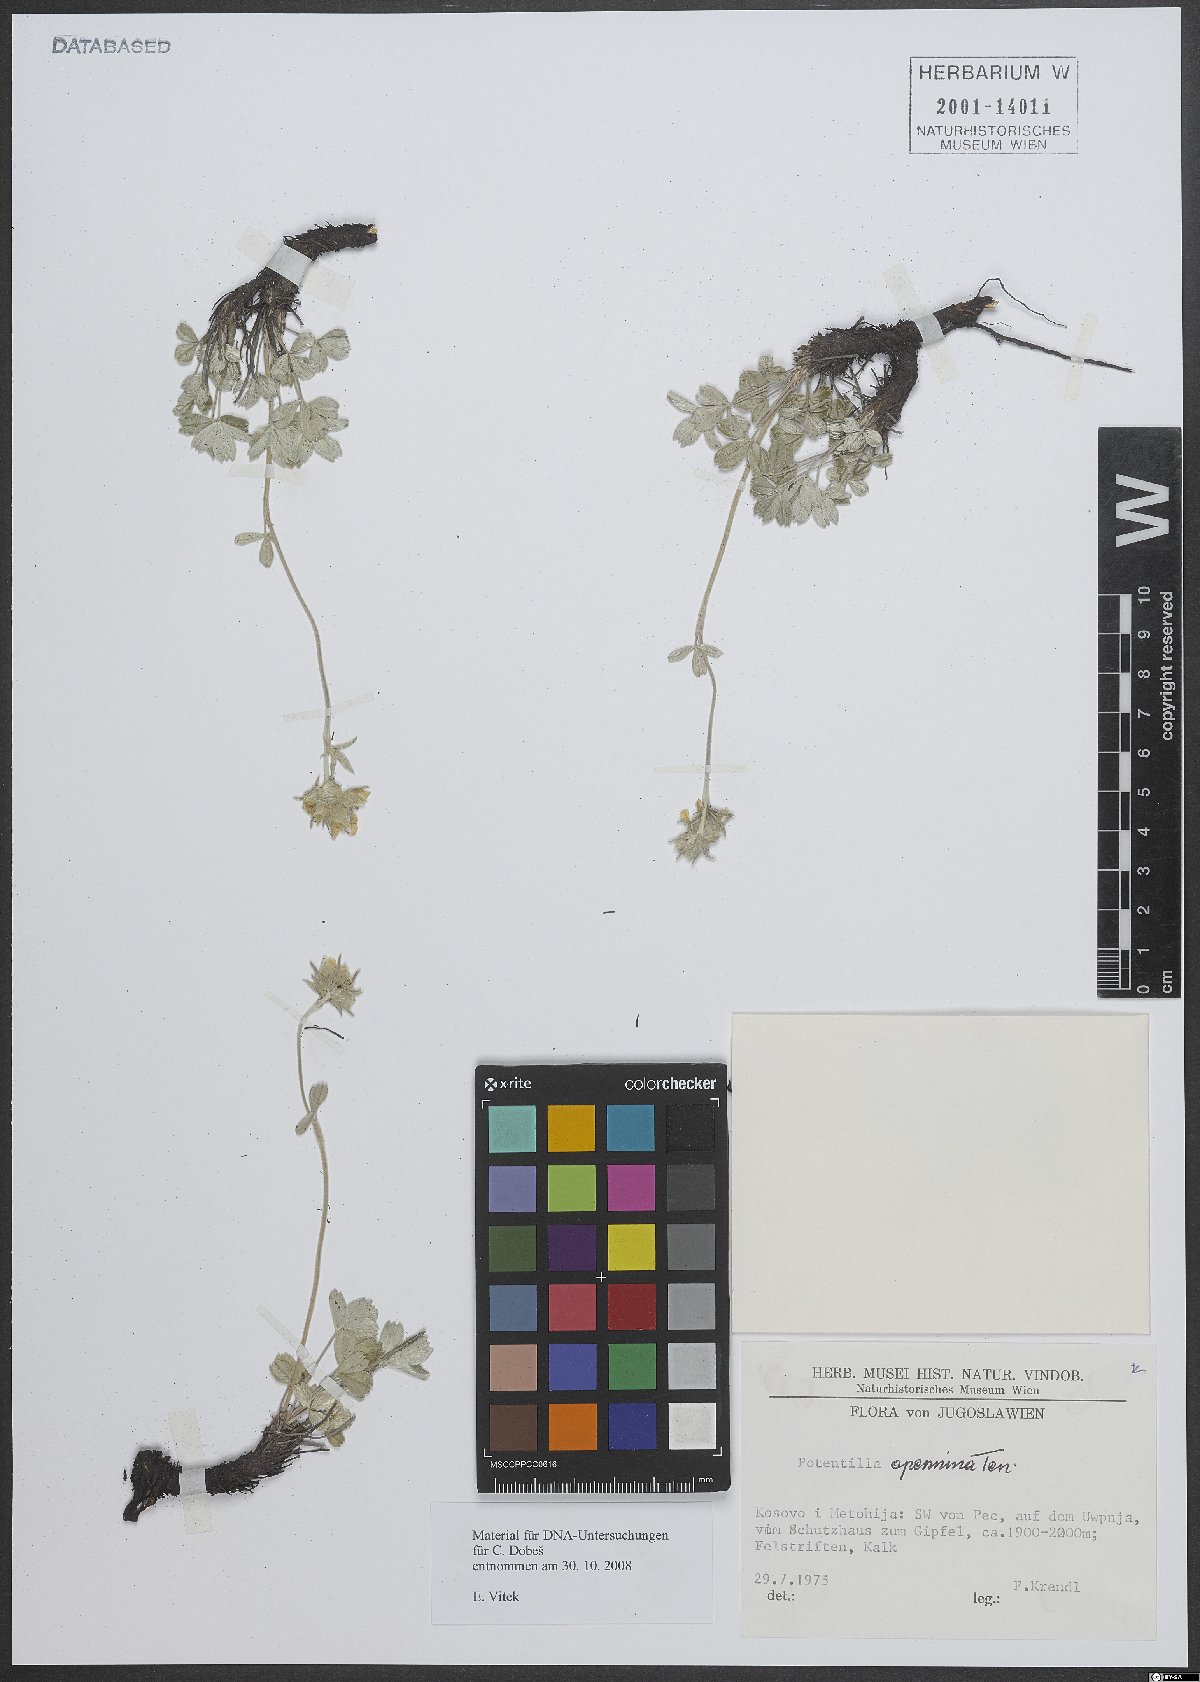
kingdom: Plantae
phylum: Tracheophyta
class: Magnoliopsida
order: Rosales
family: Rosaceae
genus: Potentilla
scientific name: Potentilla apennina
